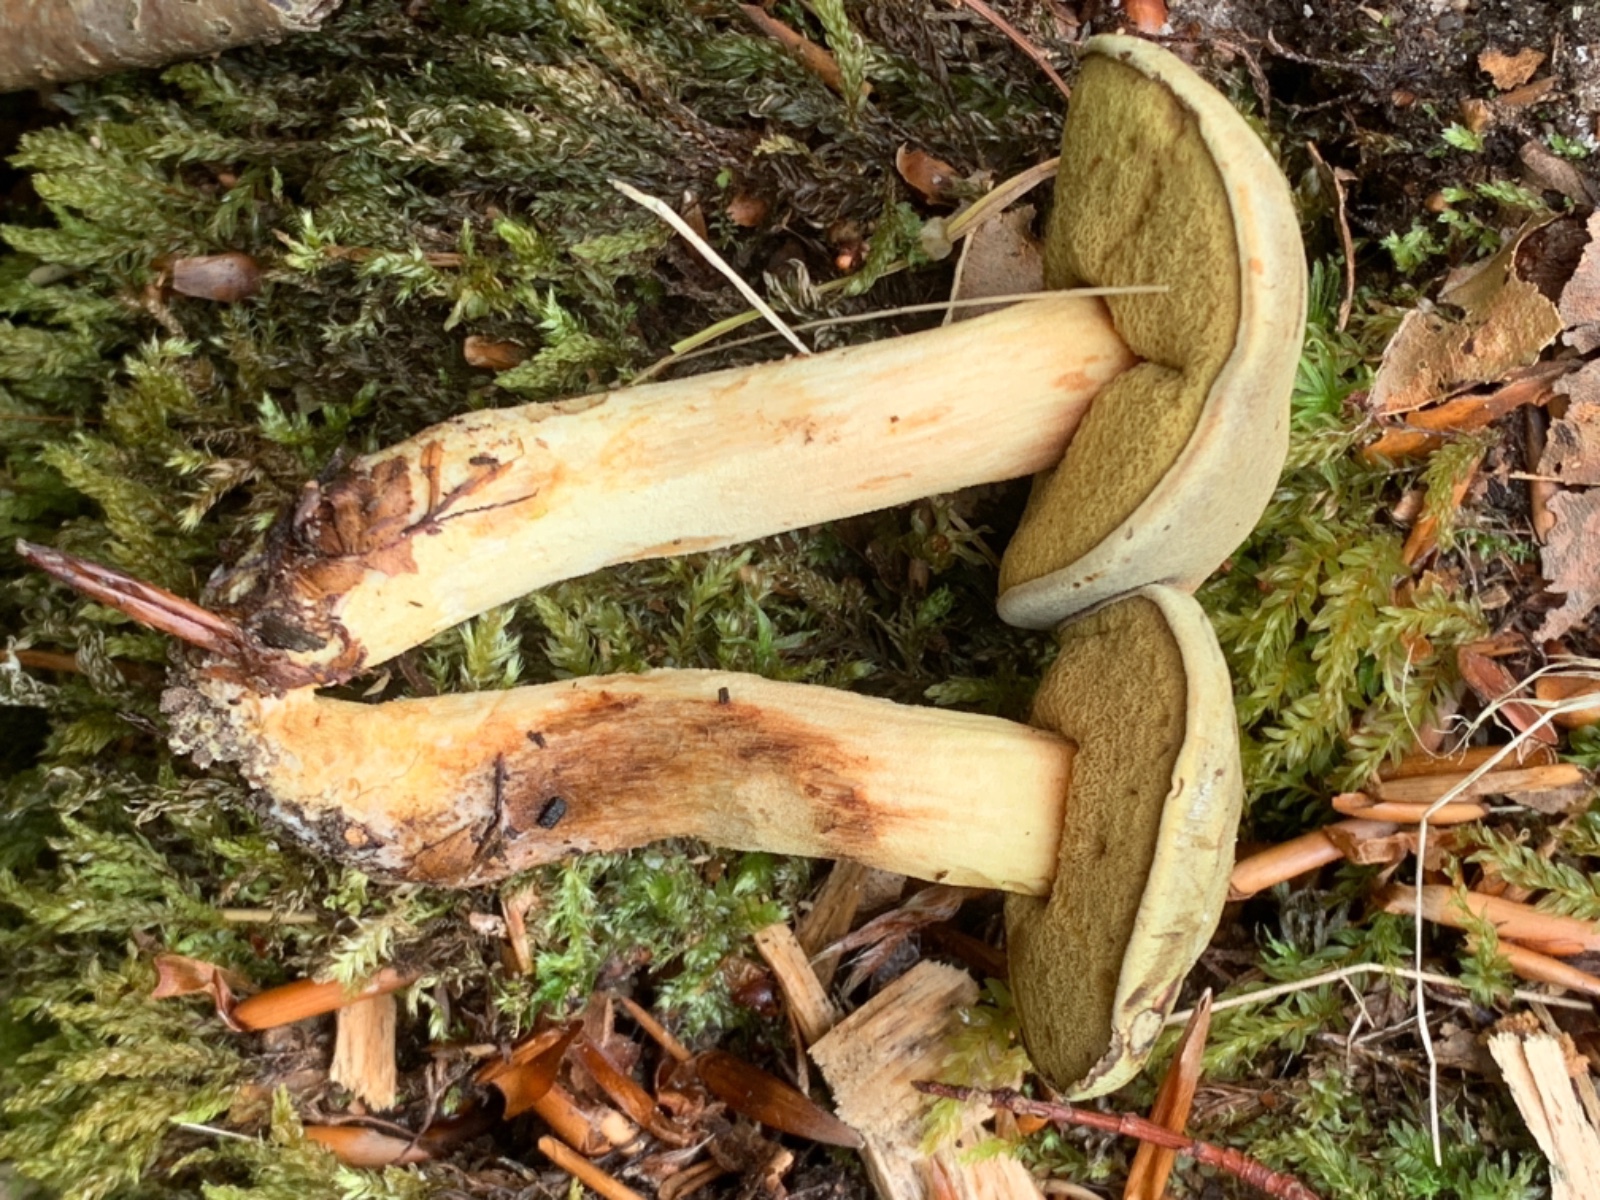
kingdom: Fungi
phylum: Basidiomycota
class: Agaricomycetes
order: Boletales
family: Boletaceae
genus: Xerocomus
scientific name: Xerocomus ferrugineus
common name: vaskeskinds-rørhat
